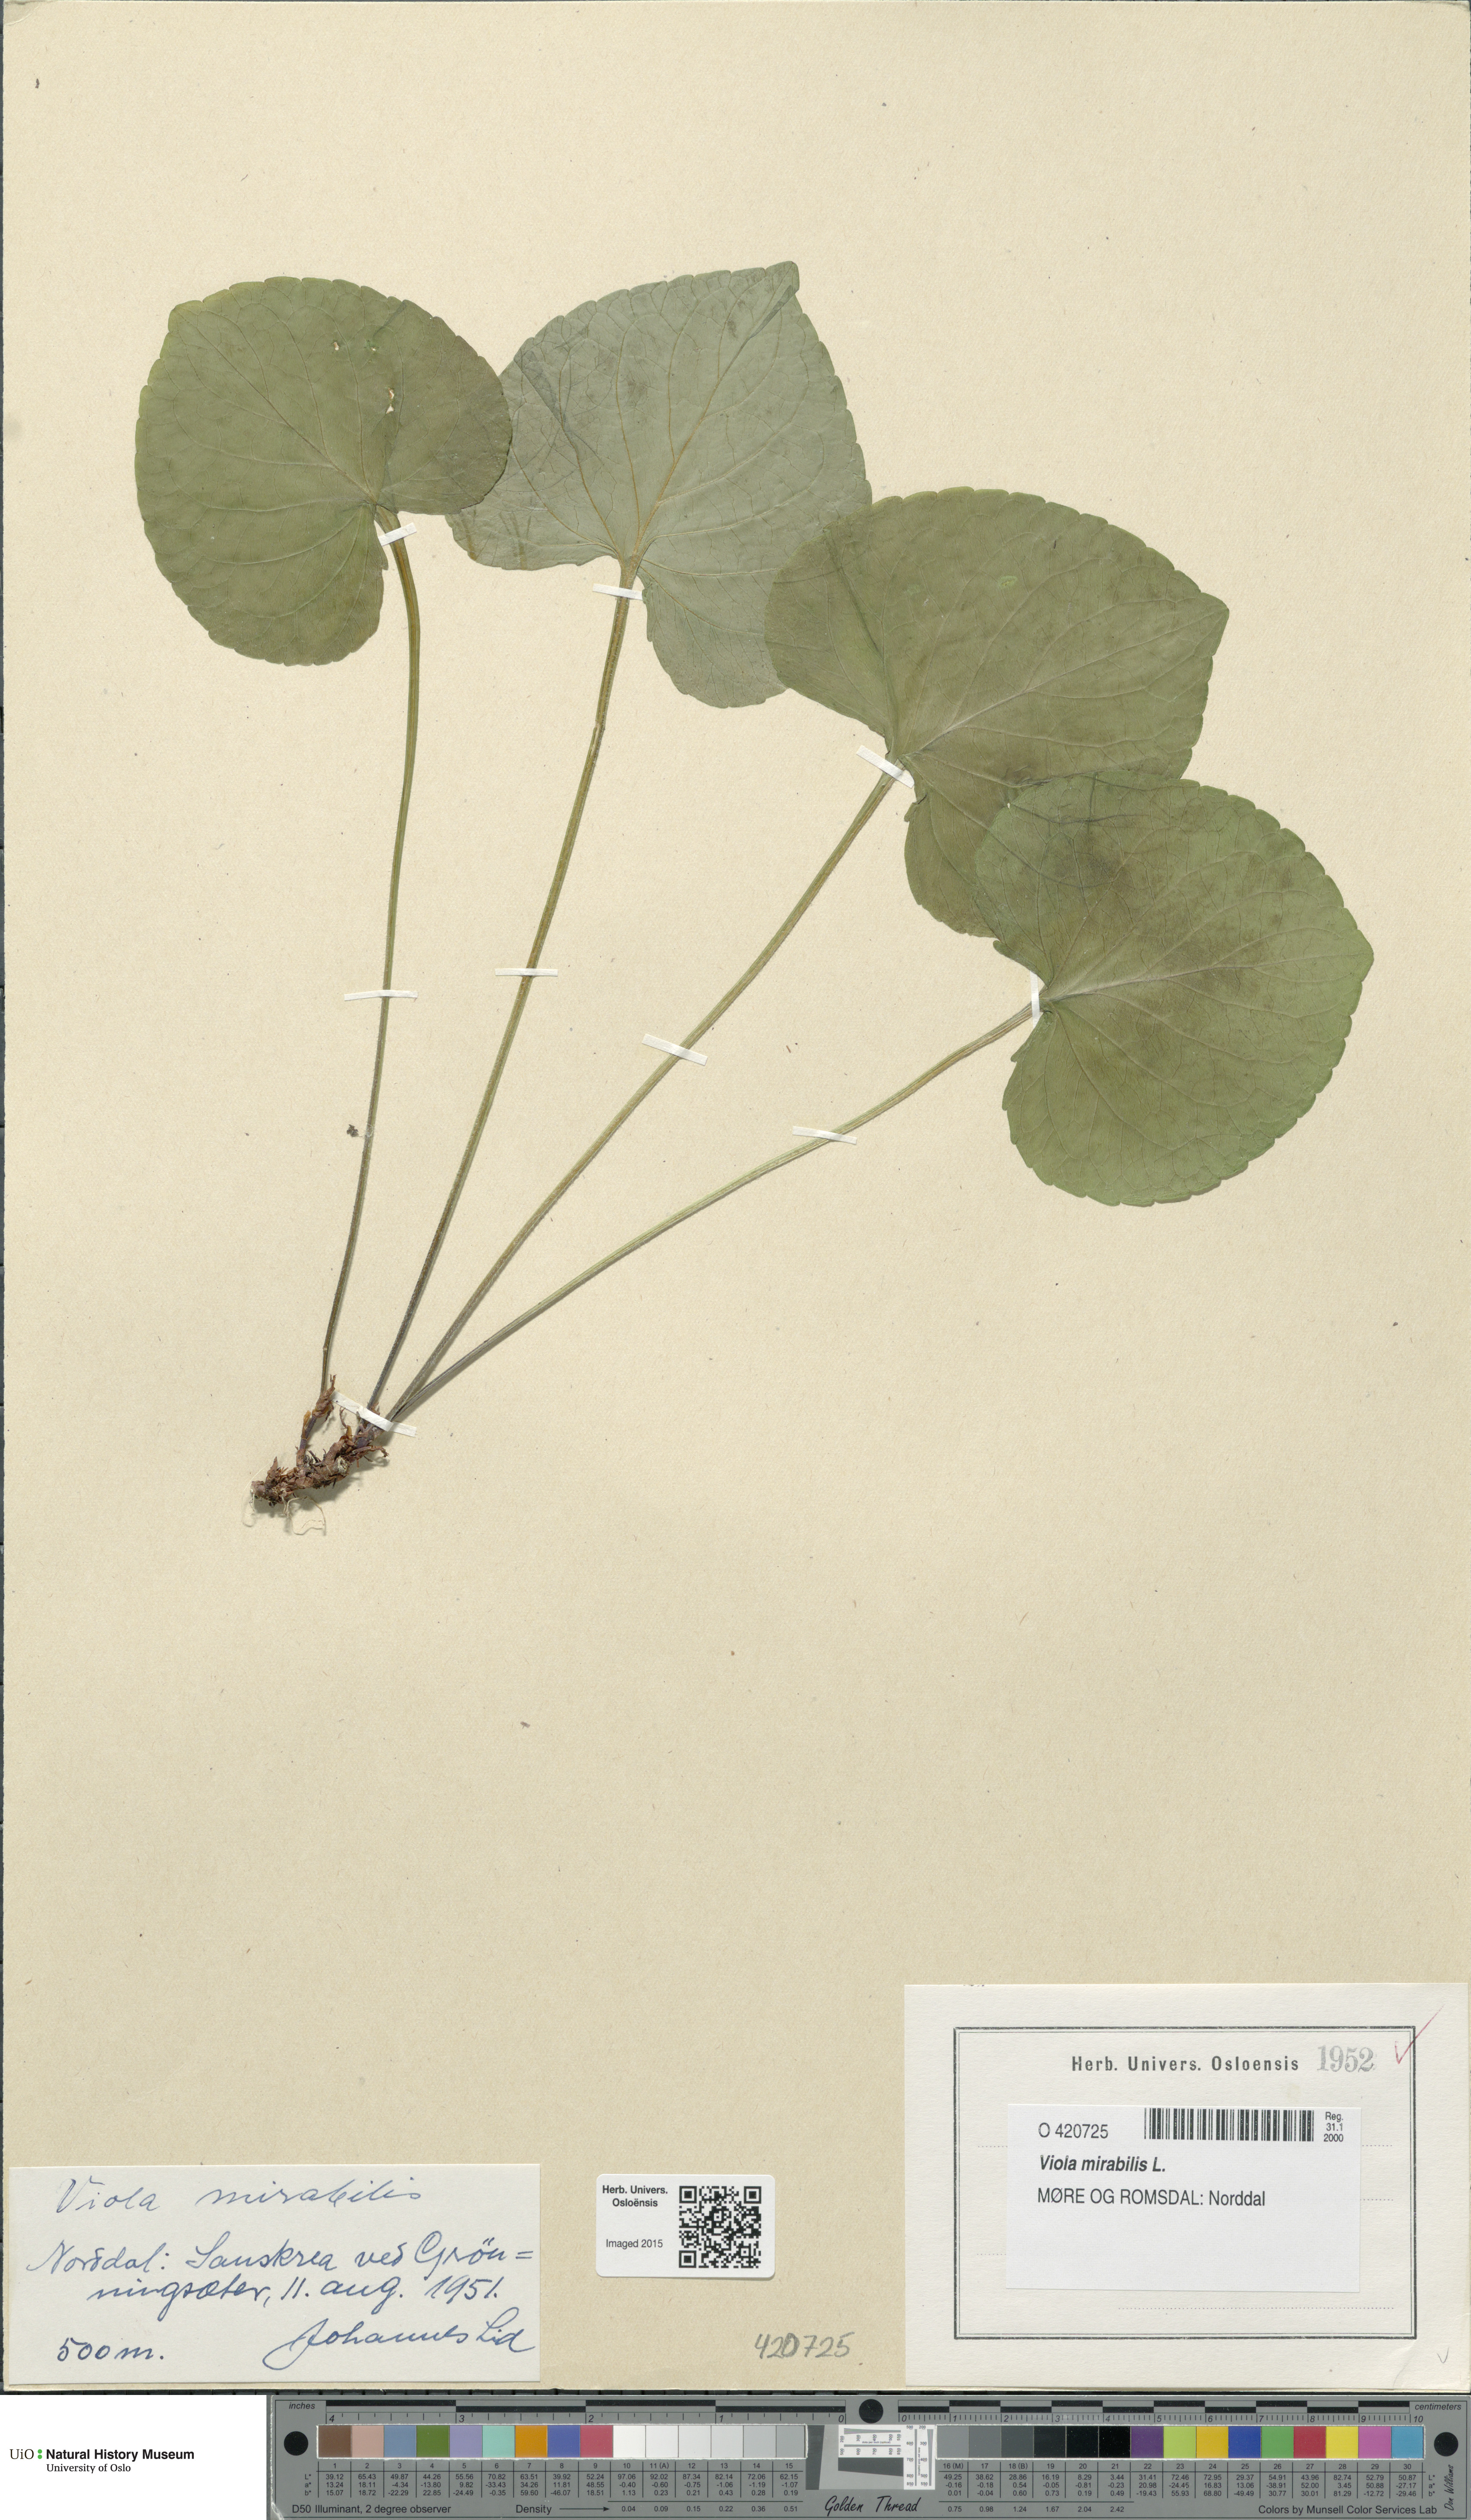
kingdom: Plantae
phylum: Tracheophyta
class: Magnoliopsida
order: Malpighiales
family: Violaceae
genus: Viola
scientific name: Viola mirabilis
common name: Wonder violet
